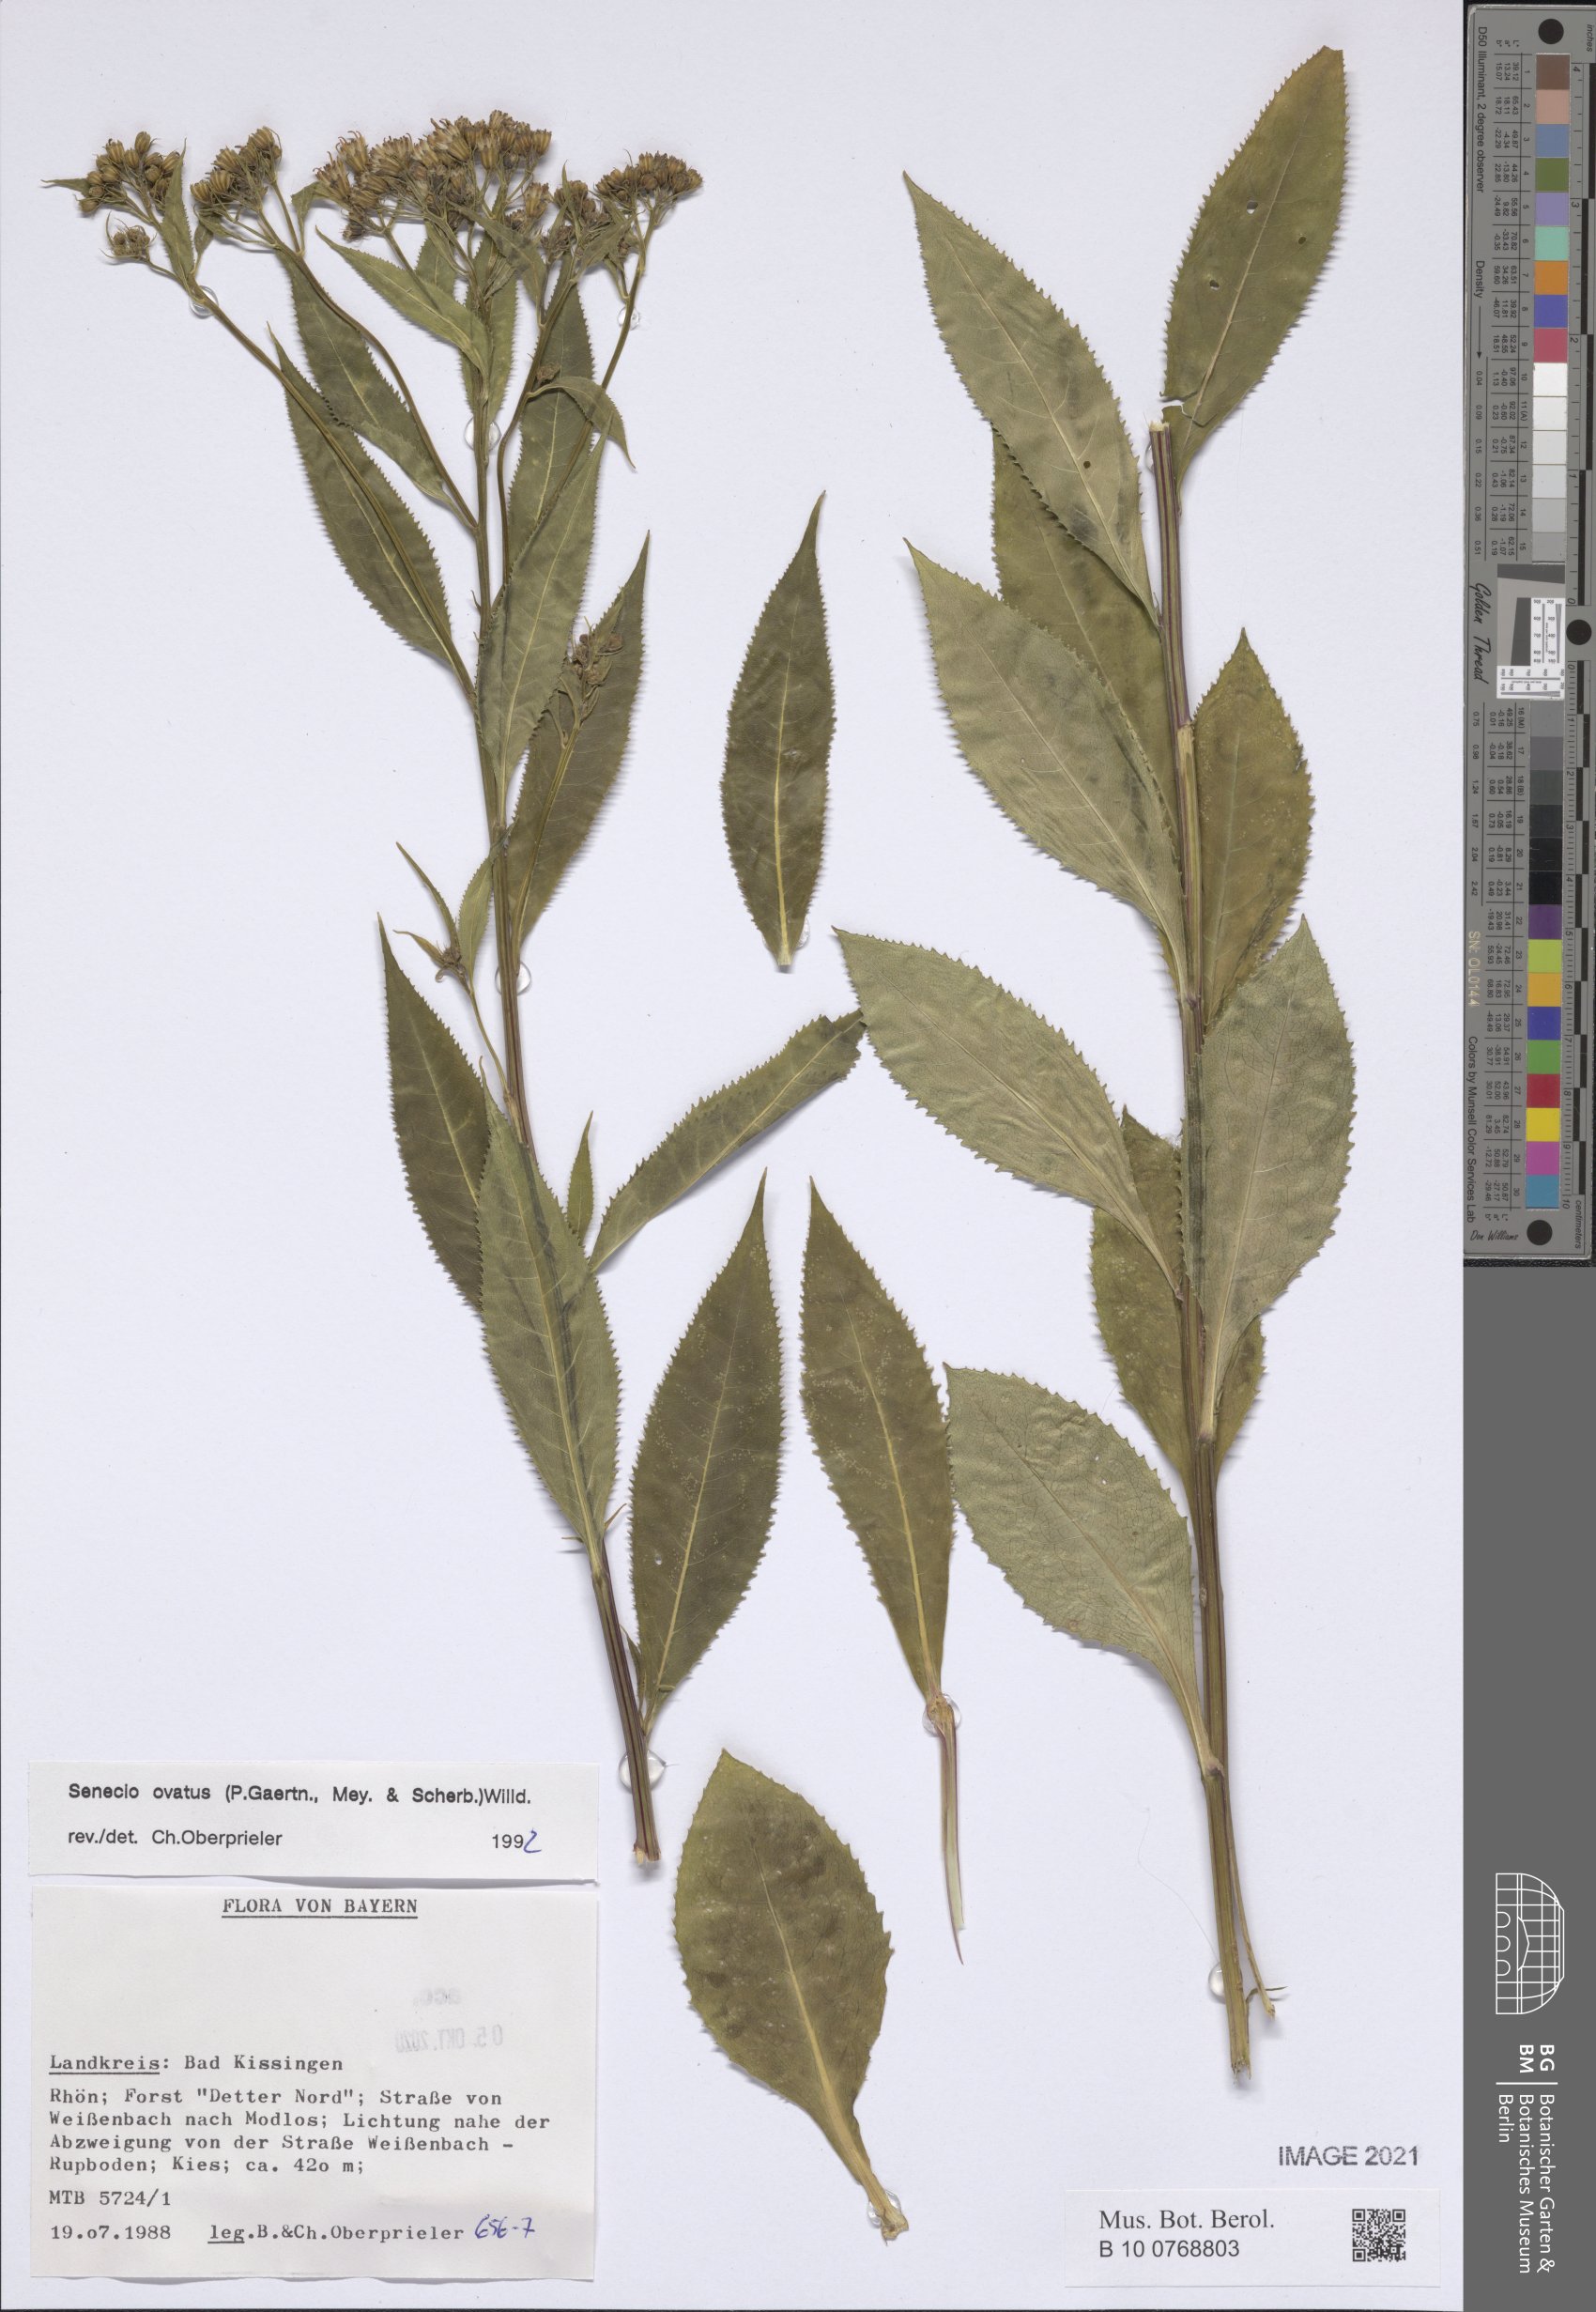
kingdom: Plantae
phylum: Tracheophyta
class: Magnoliopsida
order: Asterales
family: Asteraceae
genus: Senecio
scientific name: Senecio ovatus
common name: Wood ragwort
